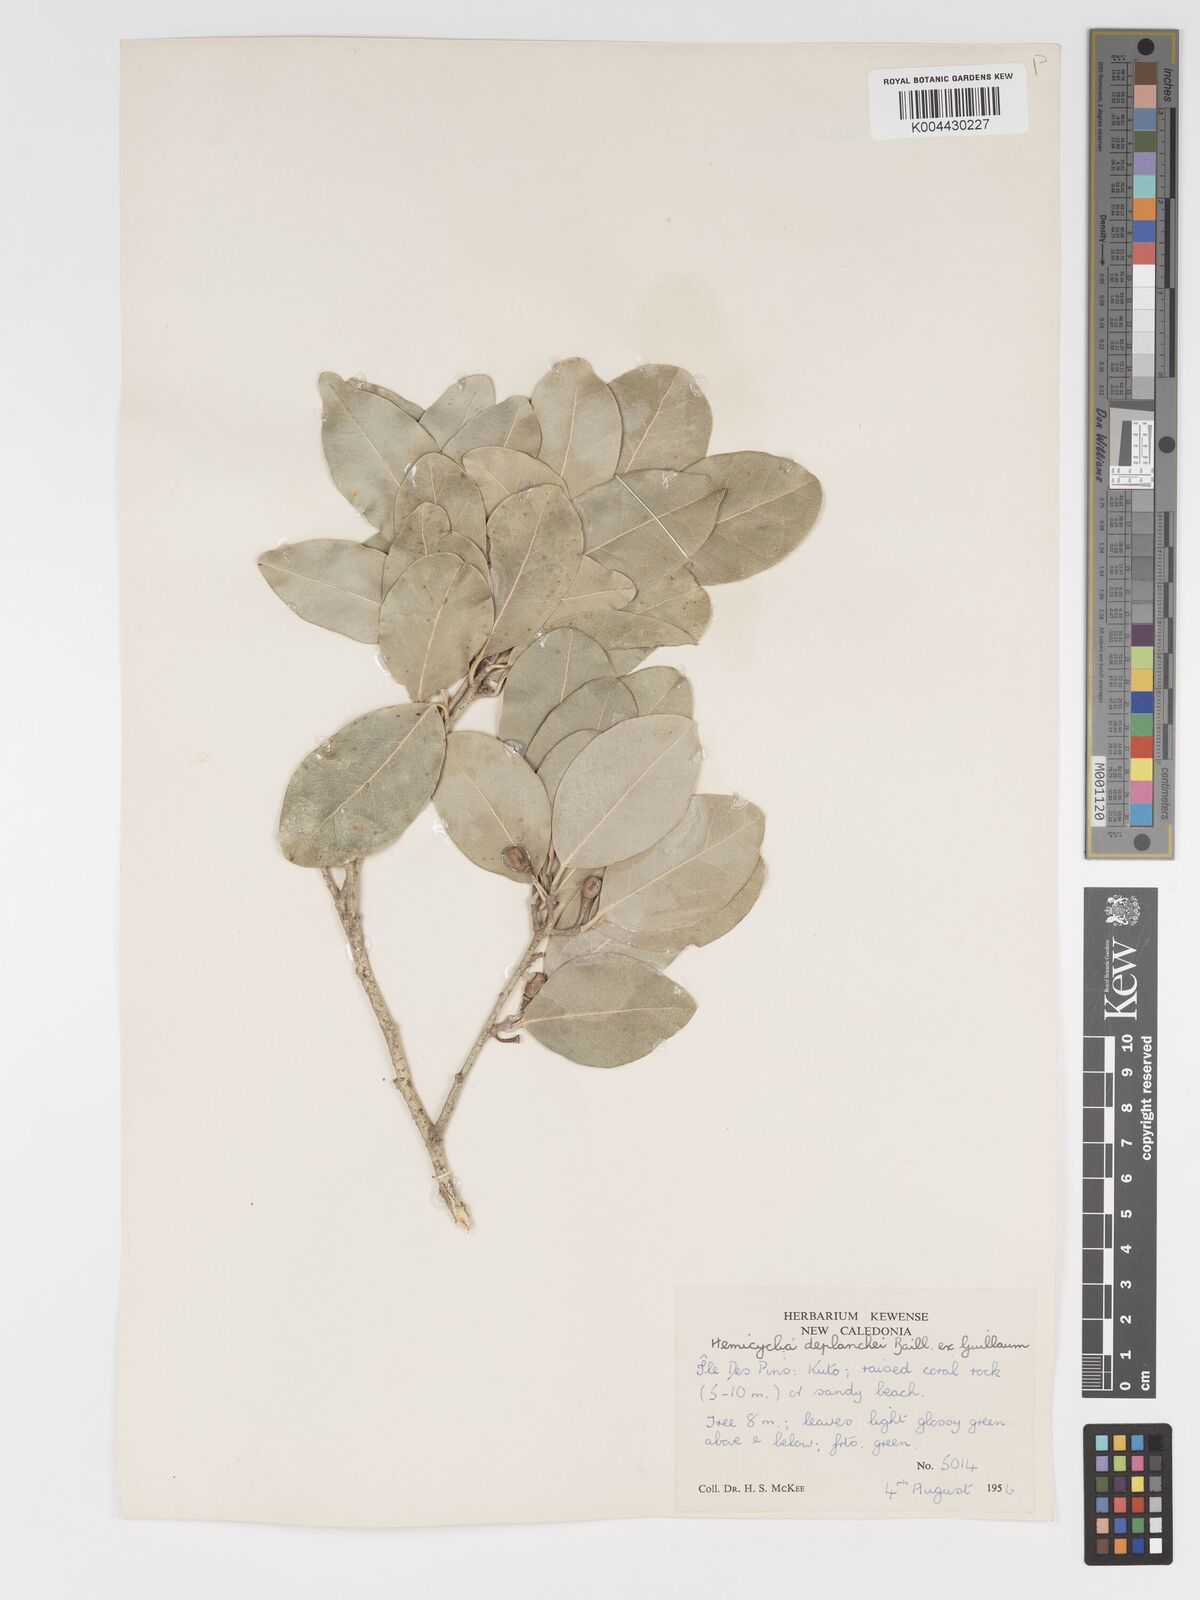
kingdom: Plantae
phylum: Tracheophyta
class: Magnoliopsida
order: Malpighiales
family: Putranjivaceae
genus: Drypetes
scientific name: Drypetes deplanchei
